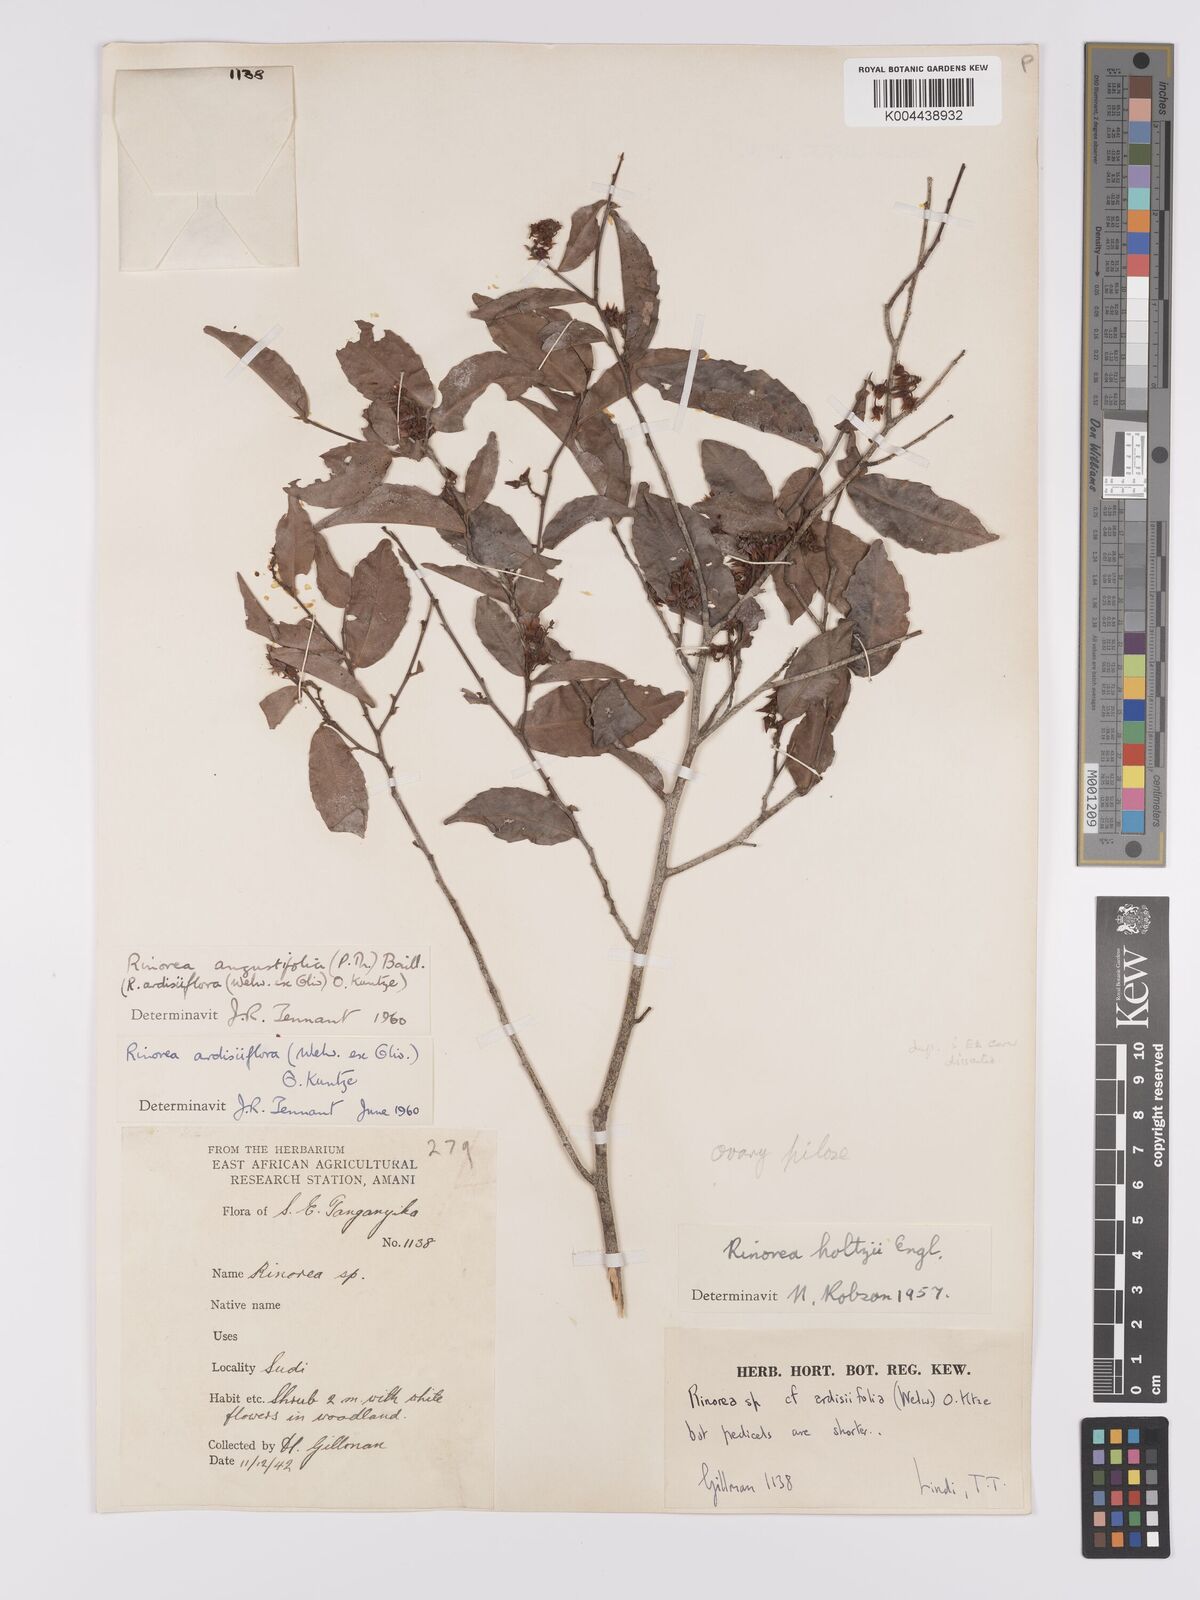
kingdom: Plantae
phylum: Tracheophyta
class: Magnoliopsida
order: Malpighiales
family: Violaceae
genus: Rinorea
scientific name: Rinorea angustifolia
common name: White violet-bush
